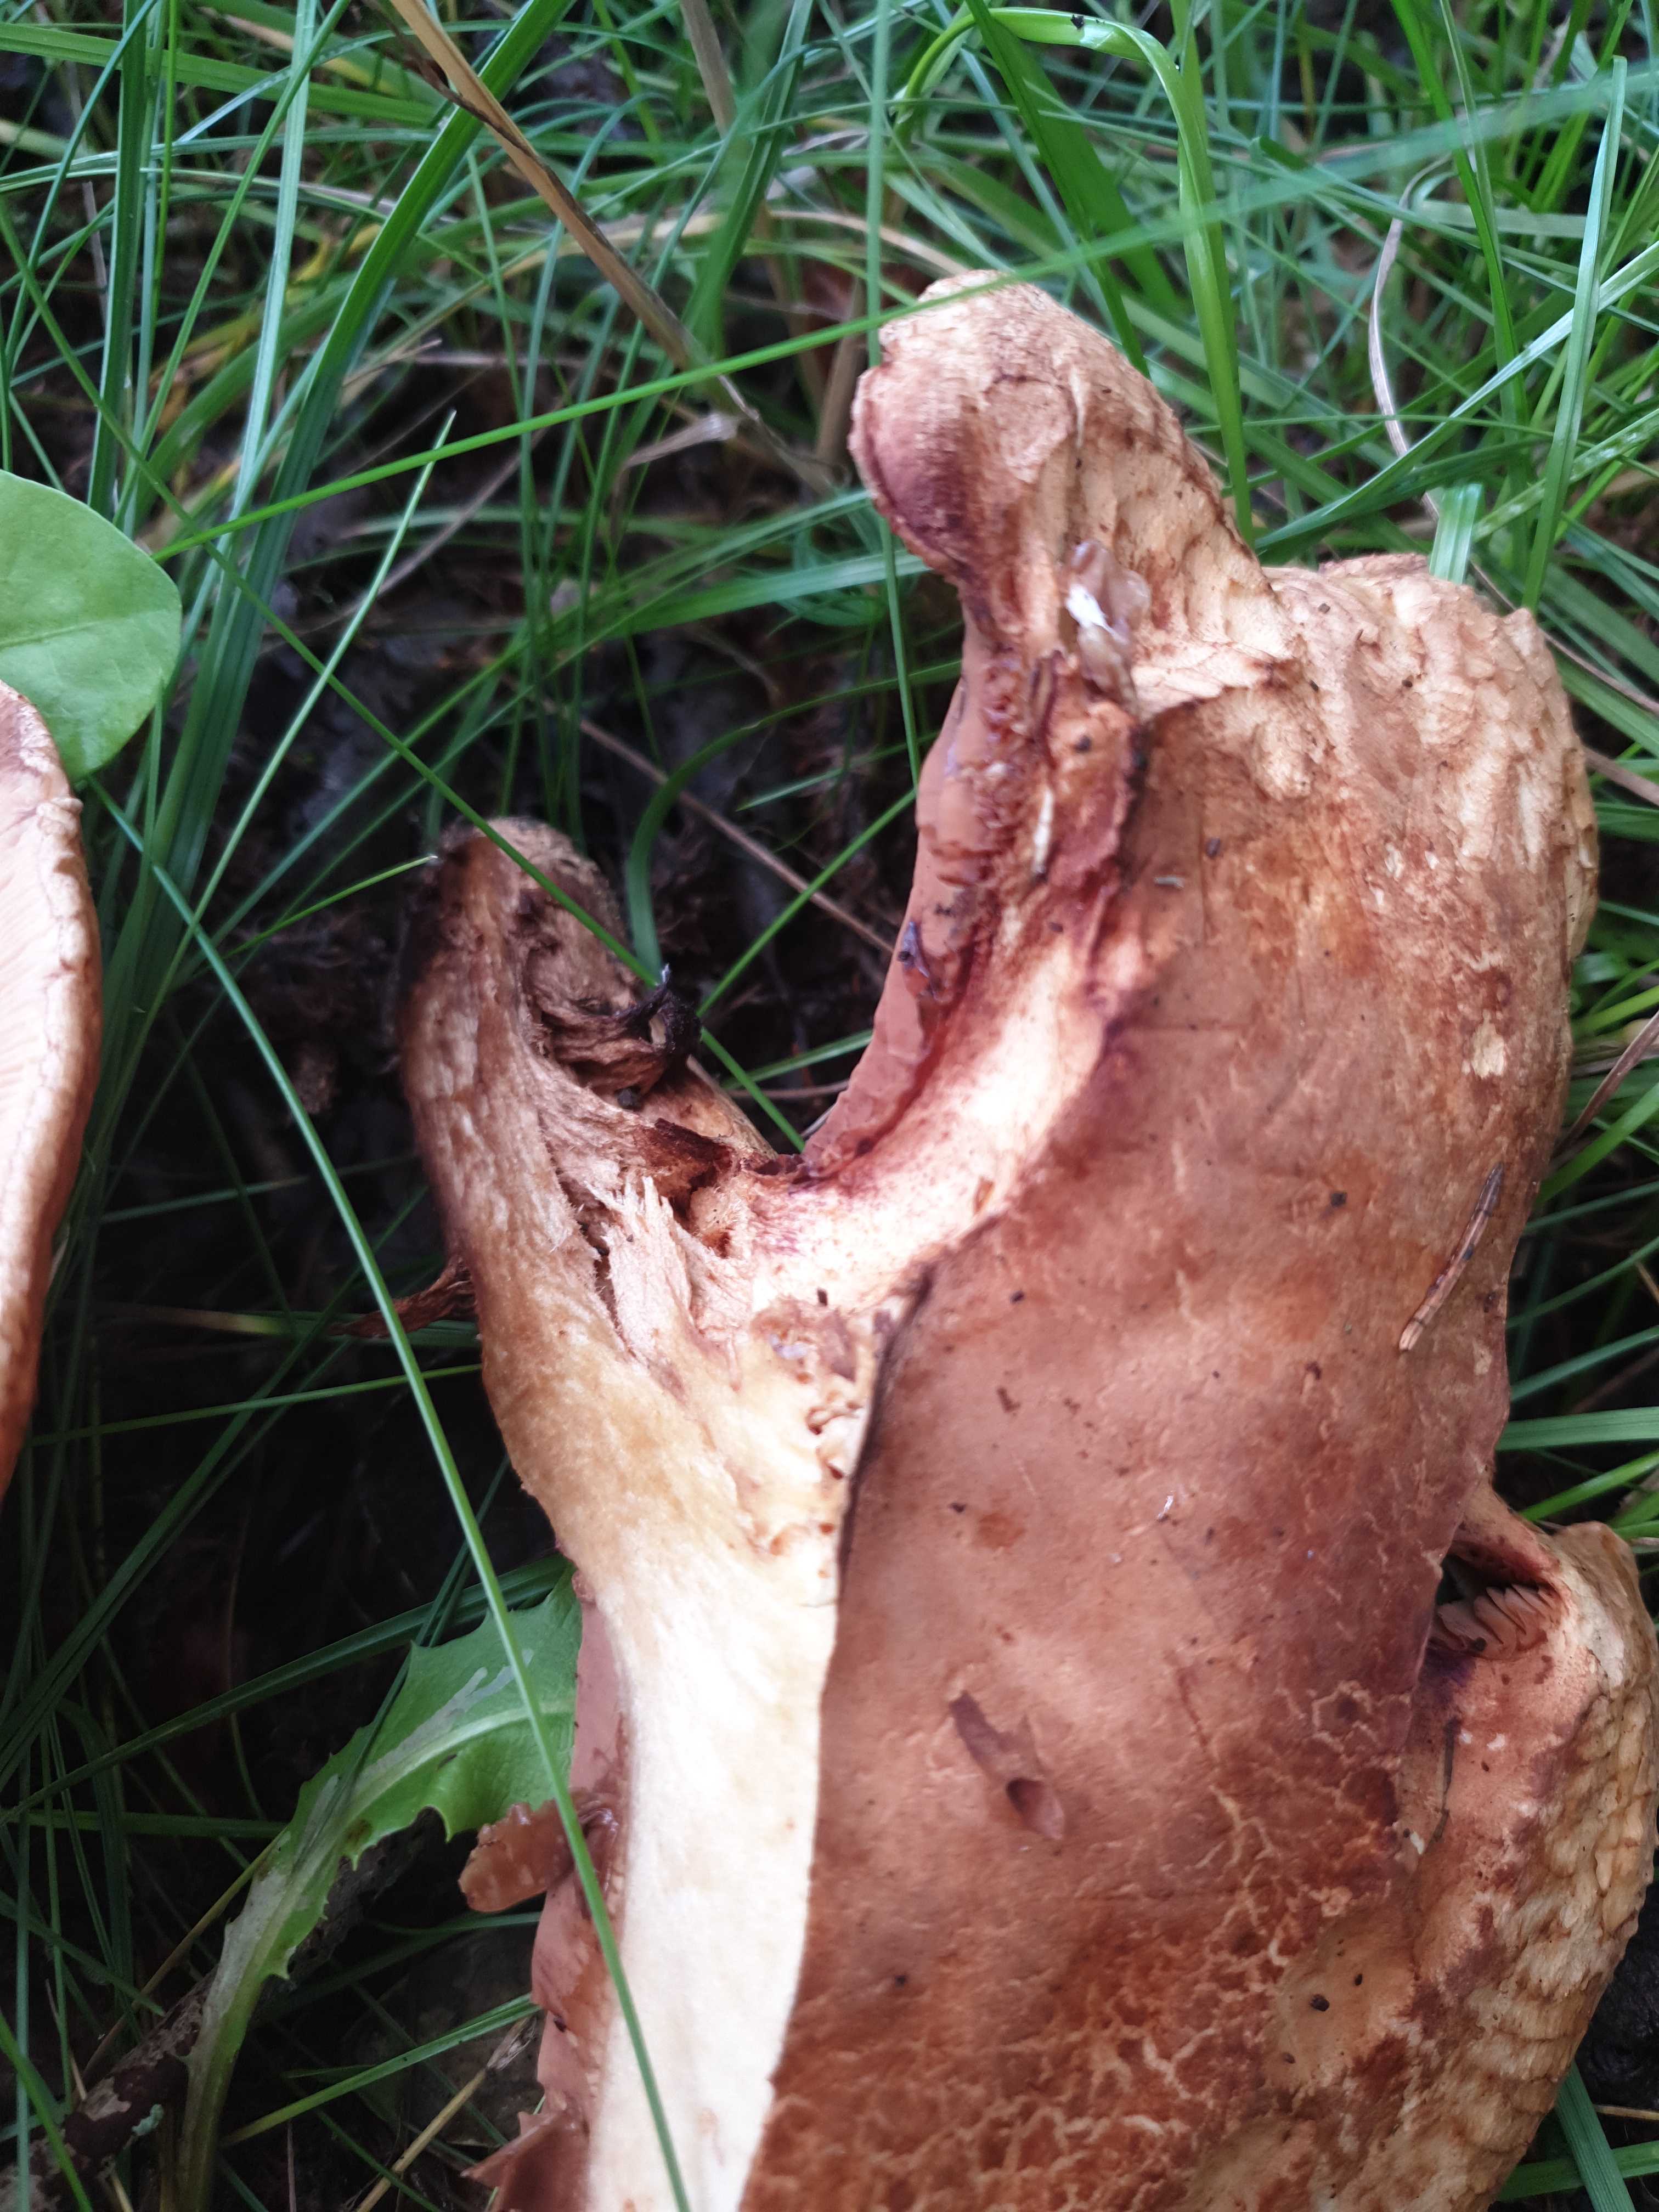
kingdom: Fungi
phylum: Basidiomycota
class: Agaricomycetes
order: Boletales
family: Paxillaceae
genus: Paxillus
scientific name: Paxillus
